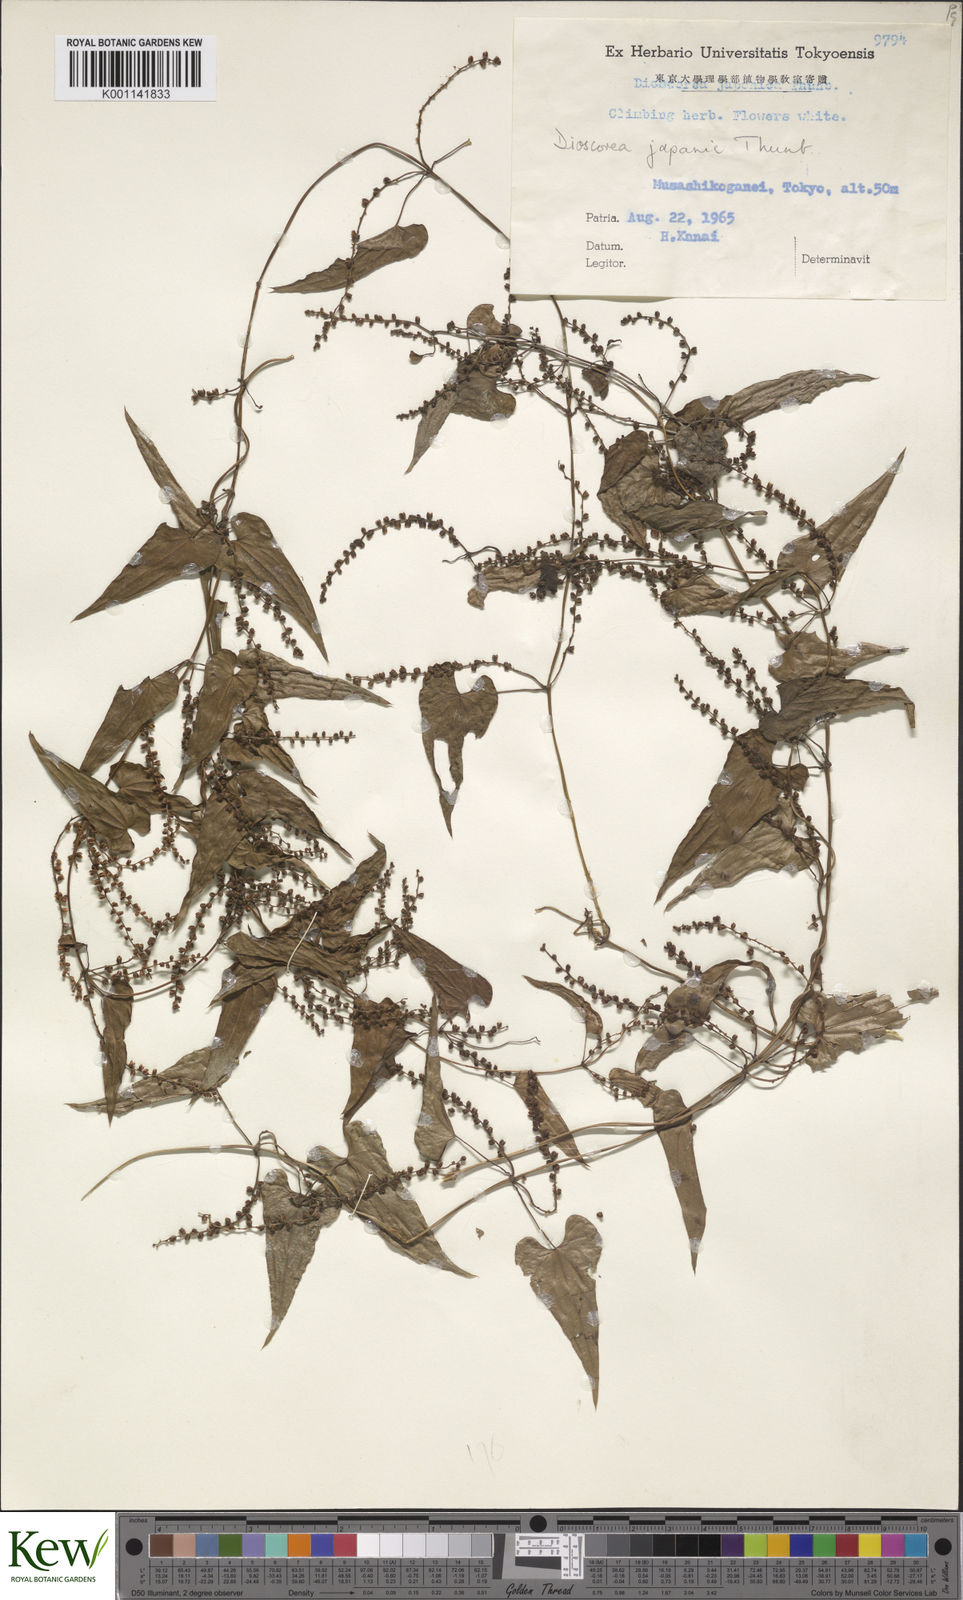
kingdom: Plantae
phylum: Tracheophyta
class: Liliopsida
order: Dioscoreales
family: Dioscoreaceae
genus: Dioscorea
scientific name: Dioscorea japonica
